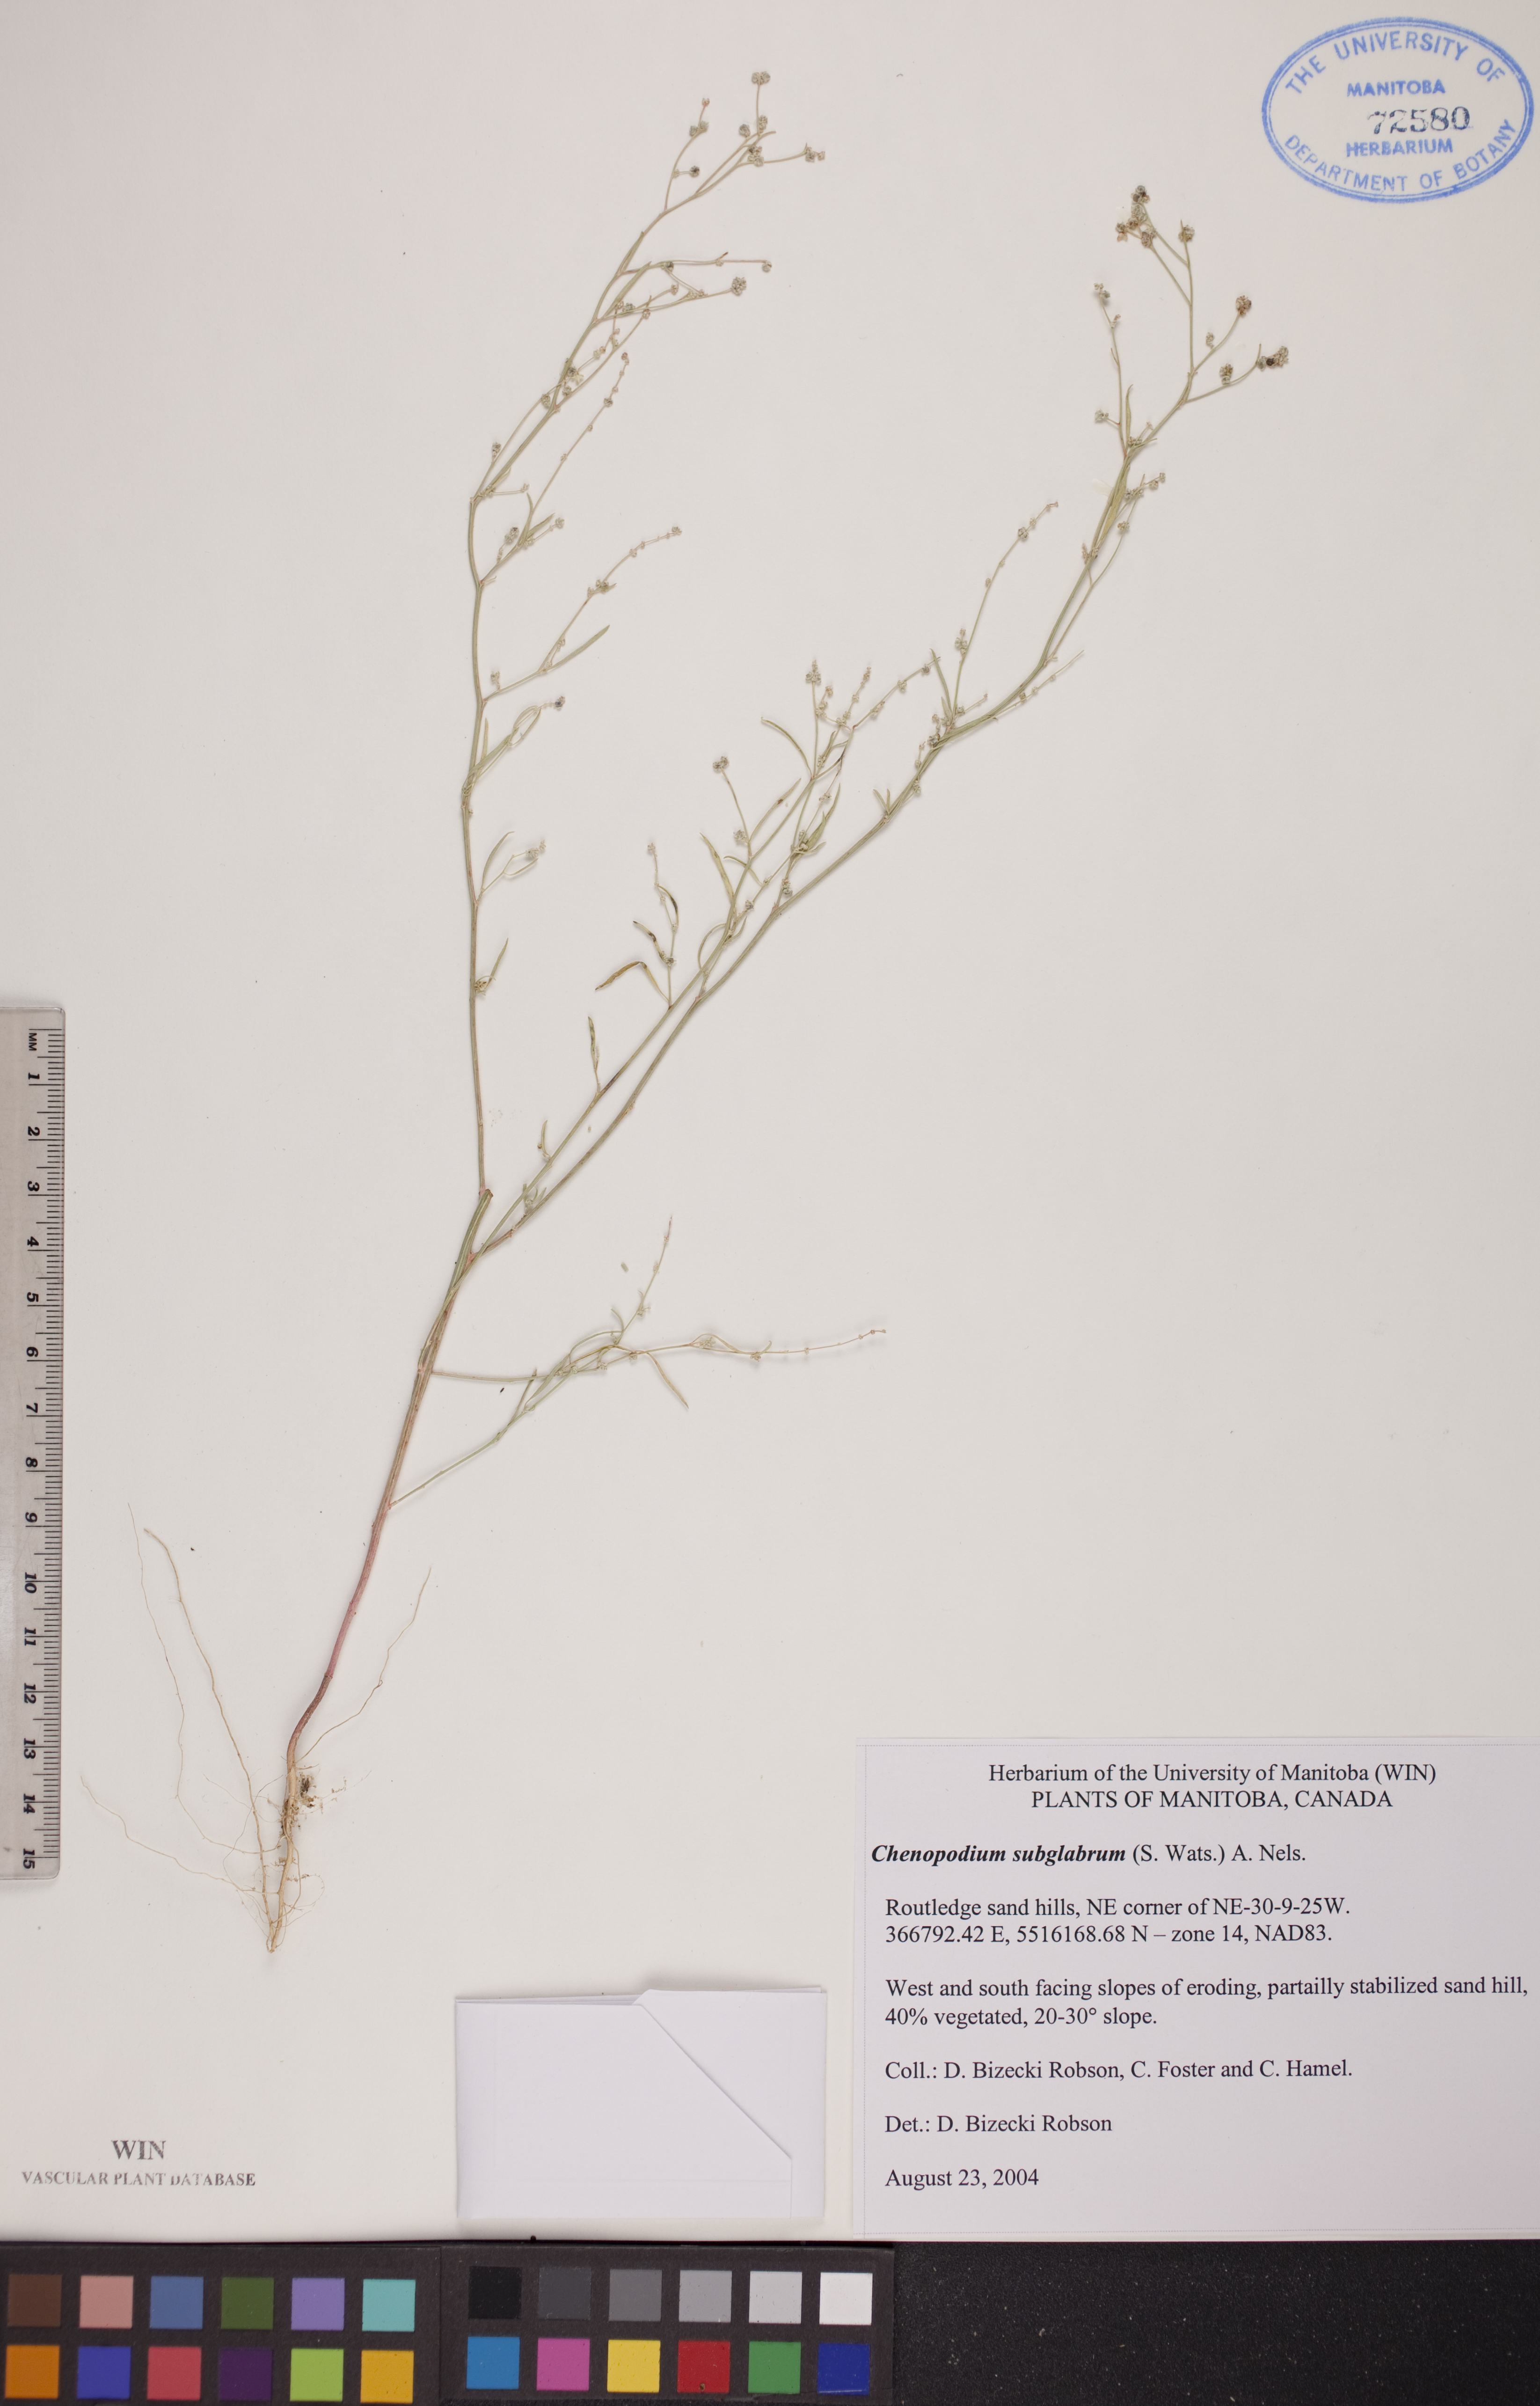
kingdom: Plantae
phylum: Tracheophyta
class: Magnoliopsida
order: Caryophyllales
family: Amaranthaceae
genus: Chenopodium
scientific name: Chenopodium subglabrum
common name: Smooth goosefoot
